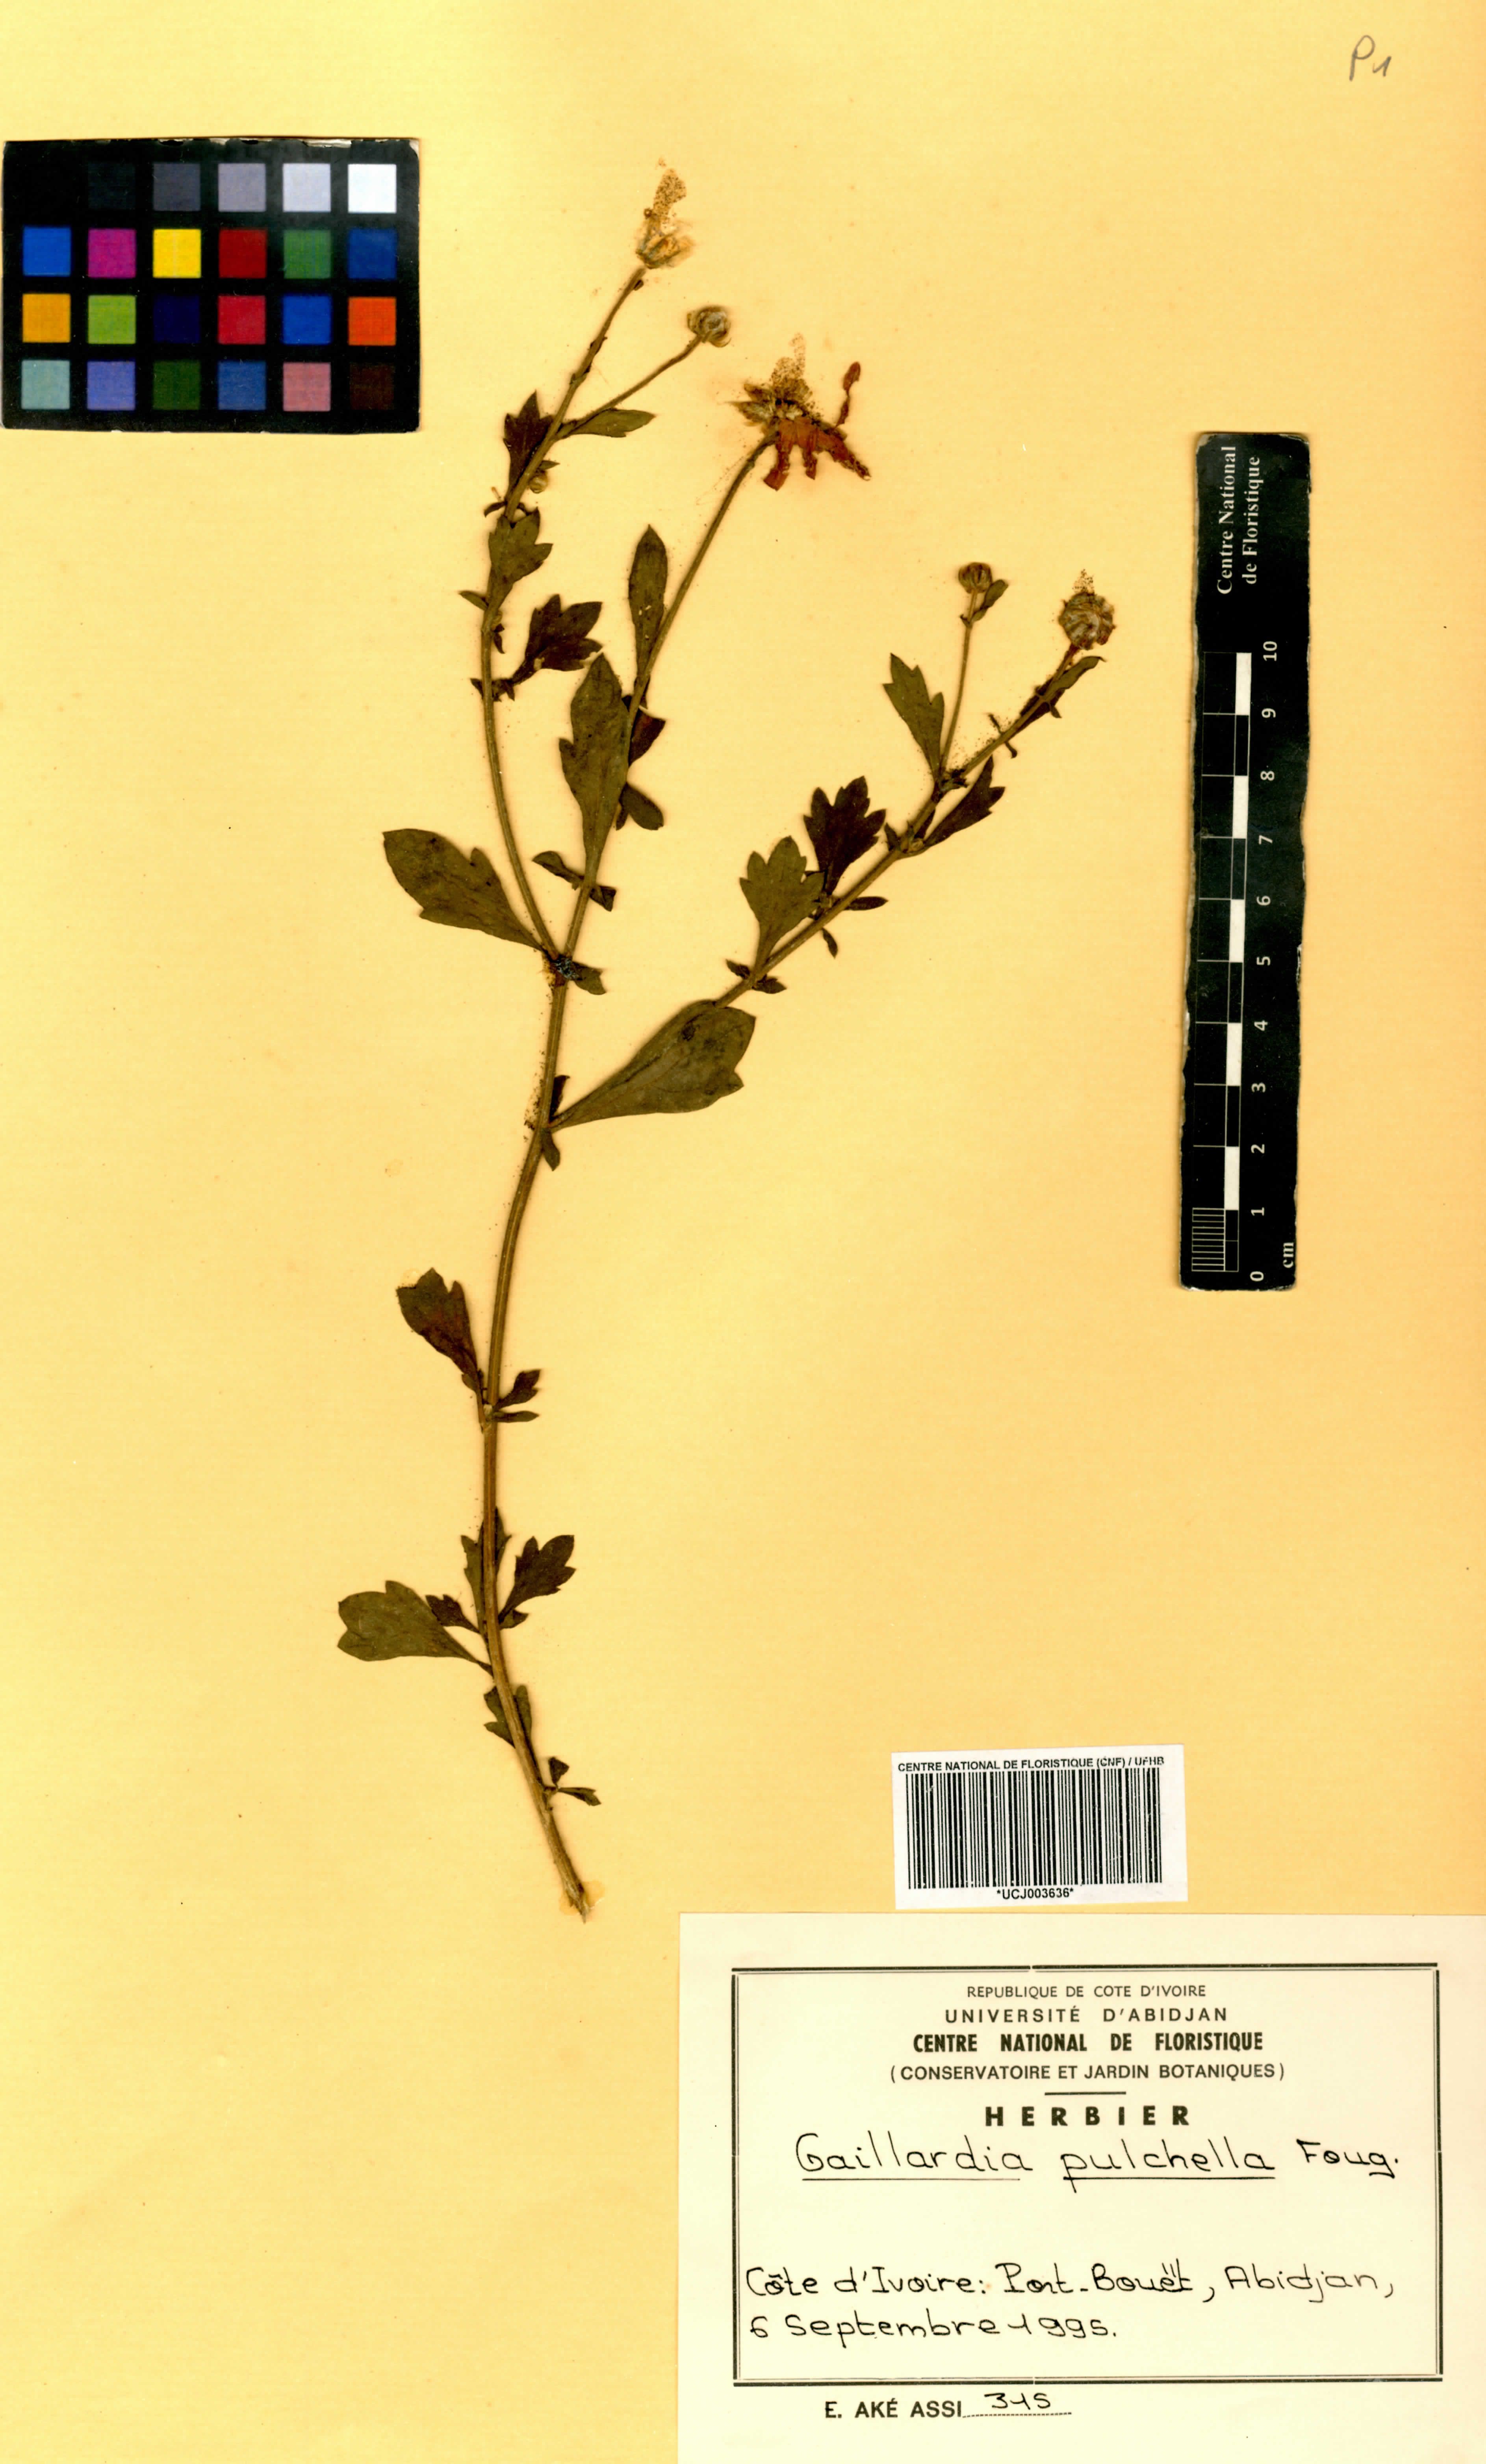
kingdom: Plantae
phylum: Tracheophyta
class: Magnoliopsida
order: Asterales
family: Asteraceae
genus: Gaillardia
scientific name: Gaillardia pulchella
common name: Firewheel
